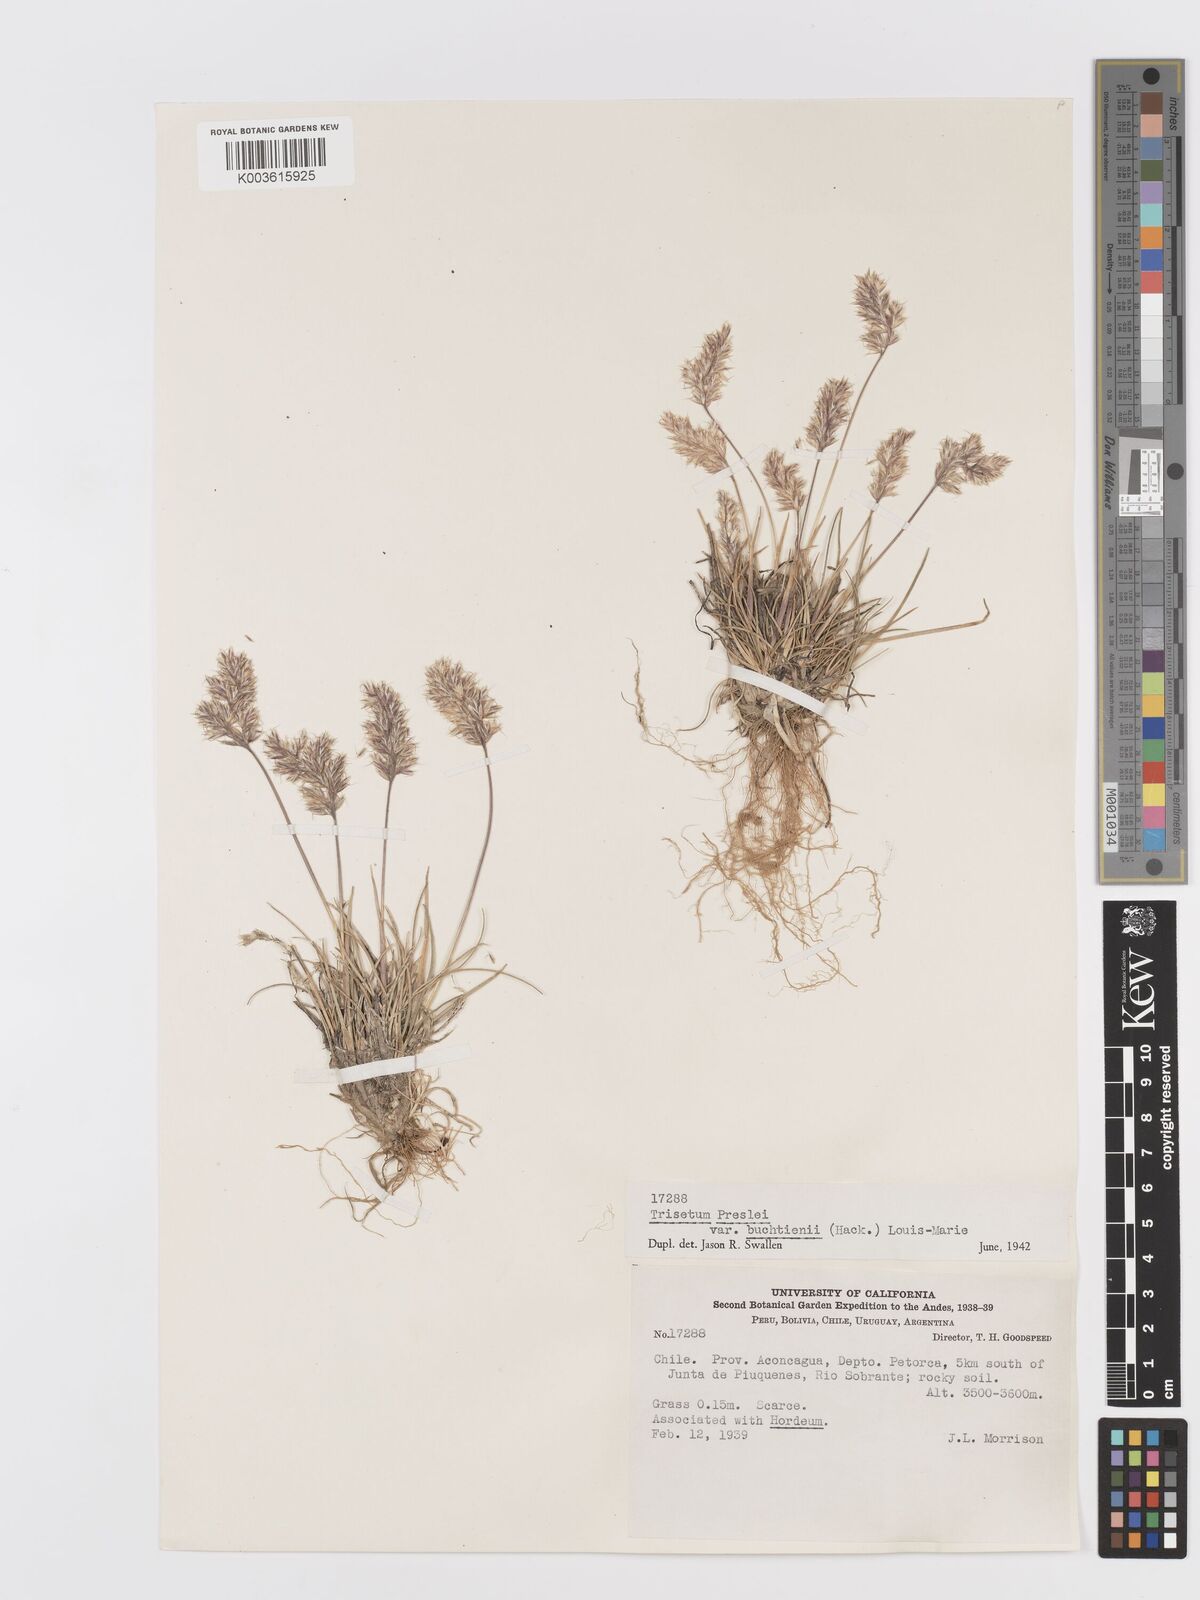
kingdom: Plantae
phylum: Tracheophyta
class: Liliopsida
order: Poales
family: Poaceae
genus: Koeleria
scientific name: Koeleria preslii
